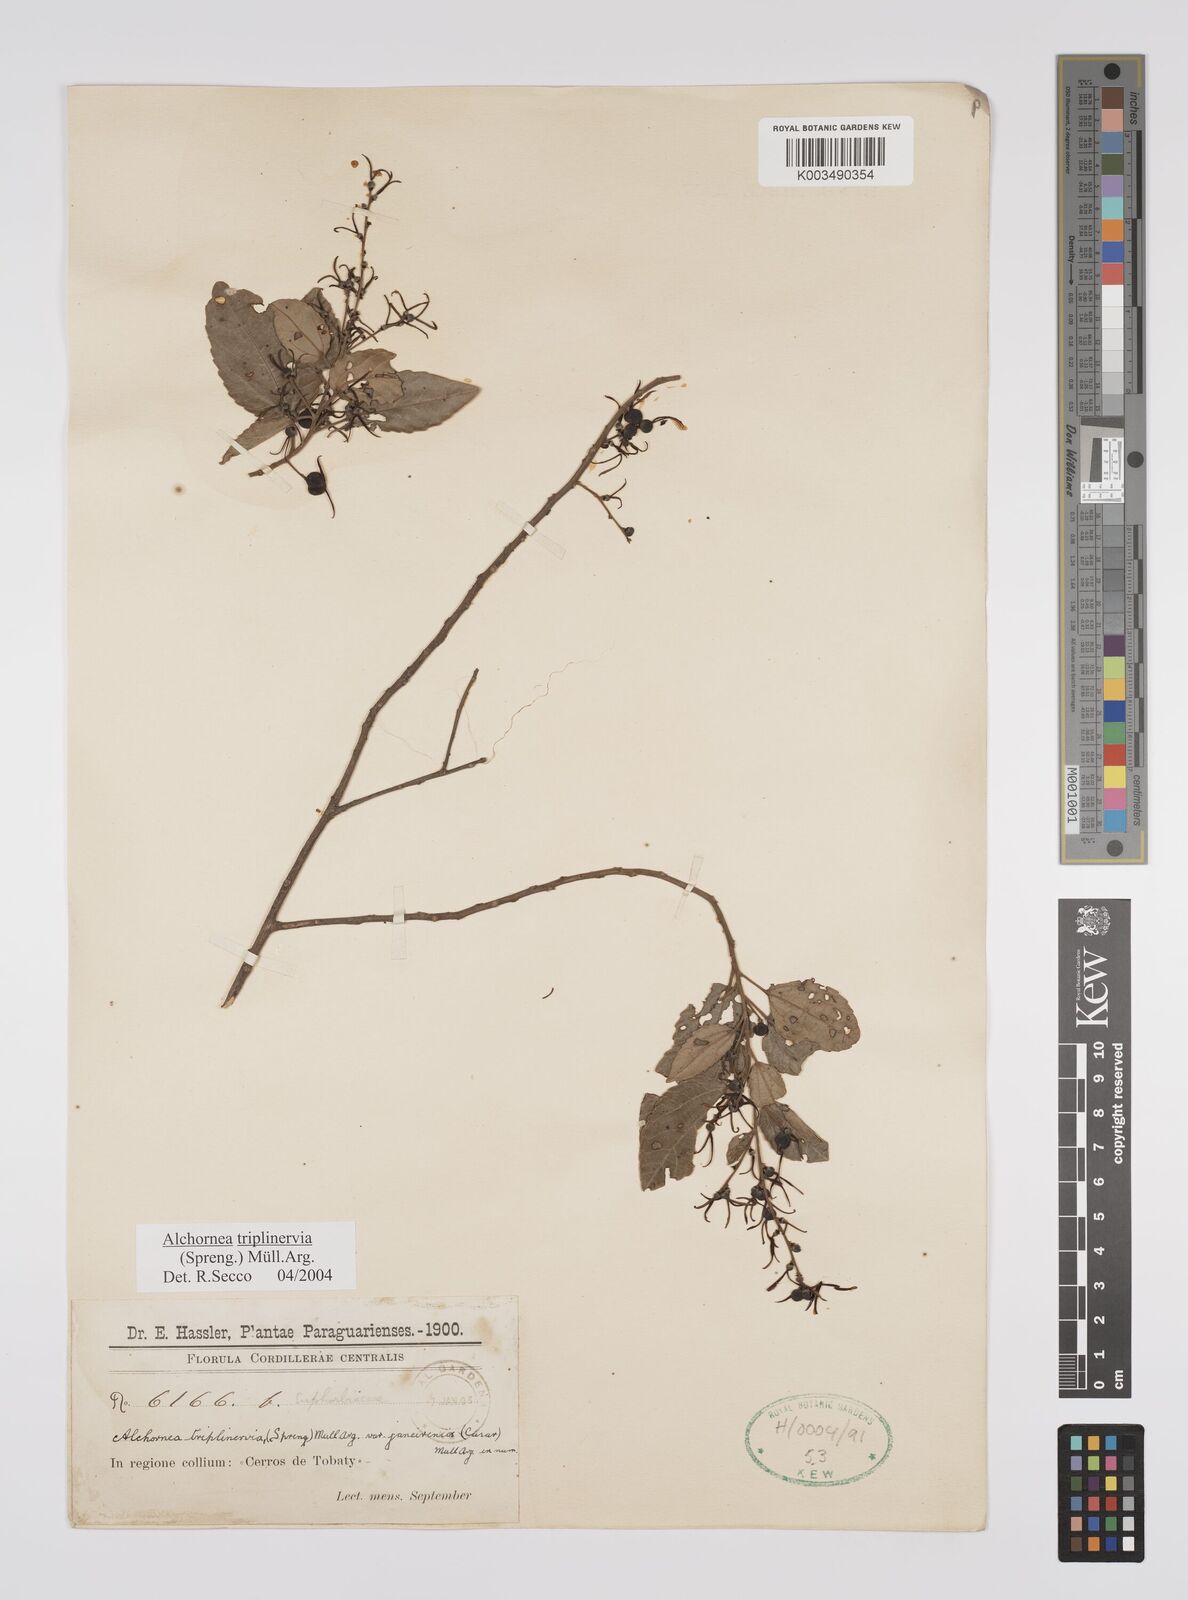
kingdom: Plantae
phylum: Tracheophyta
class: Magnoliopsida
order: Malpighiales
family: Euphorbiaceae
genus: Alchornea
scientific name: Alchornea triplinervia
